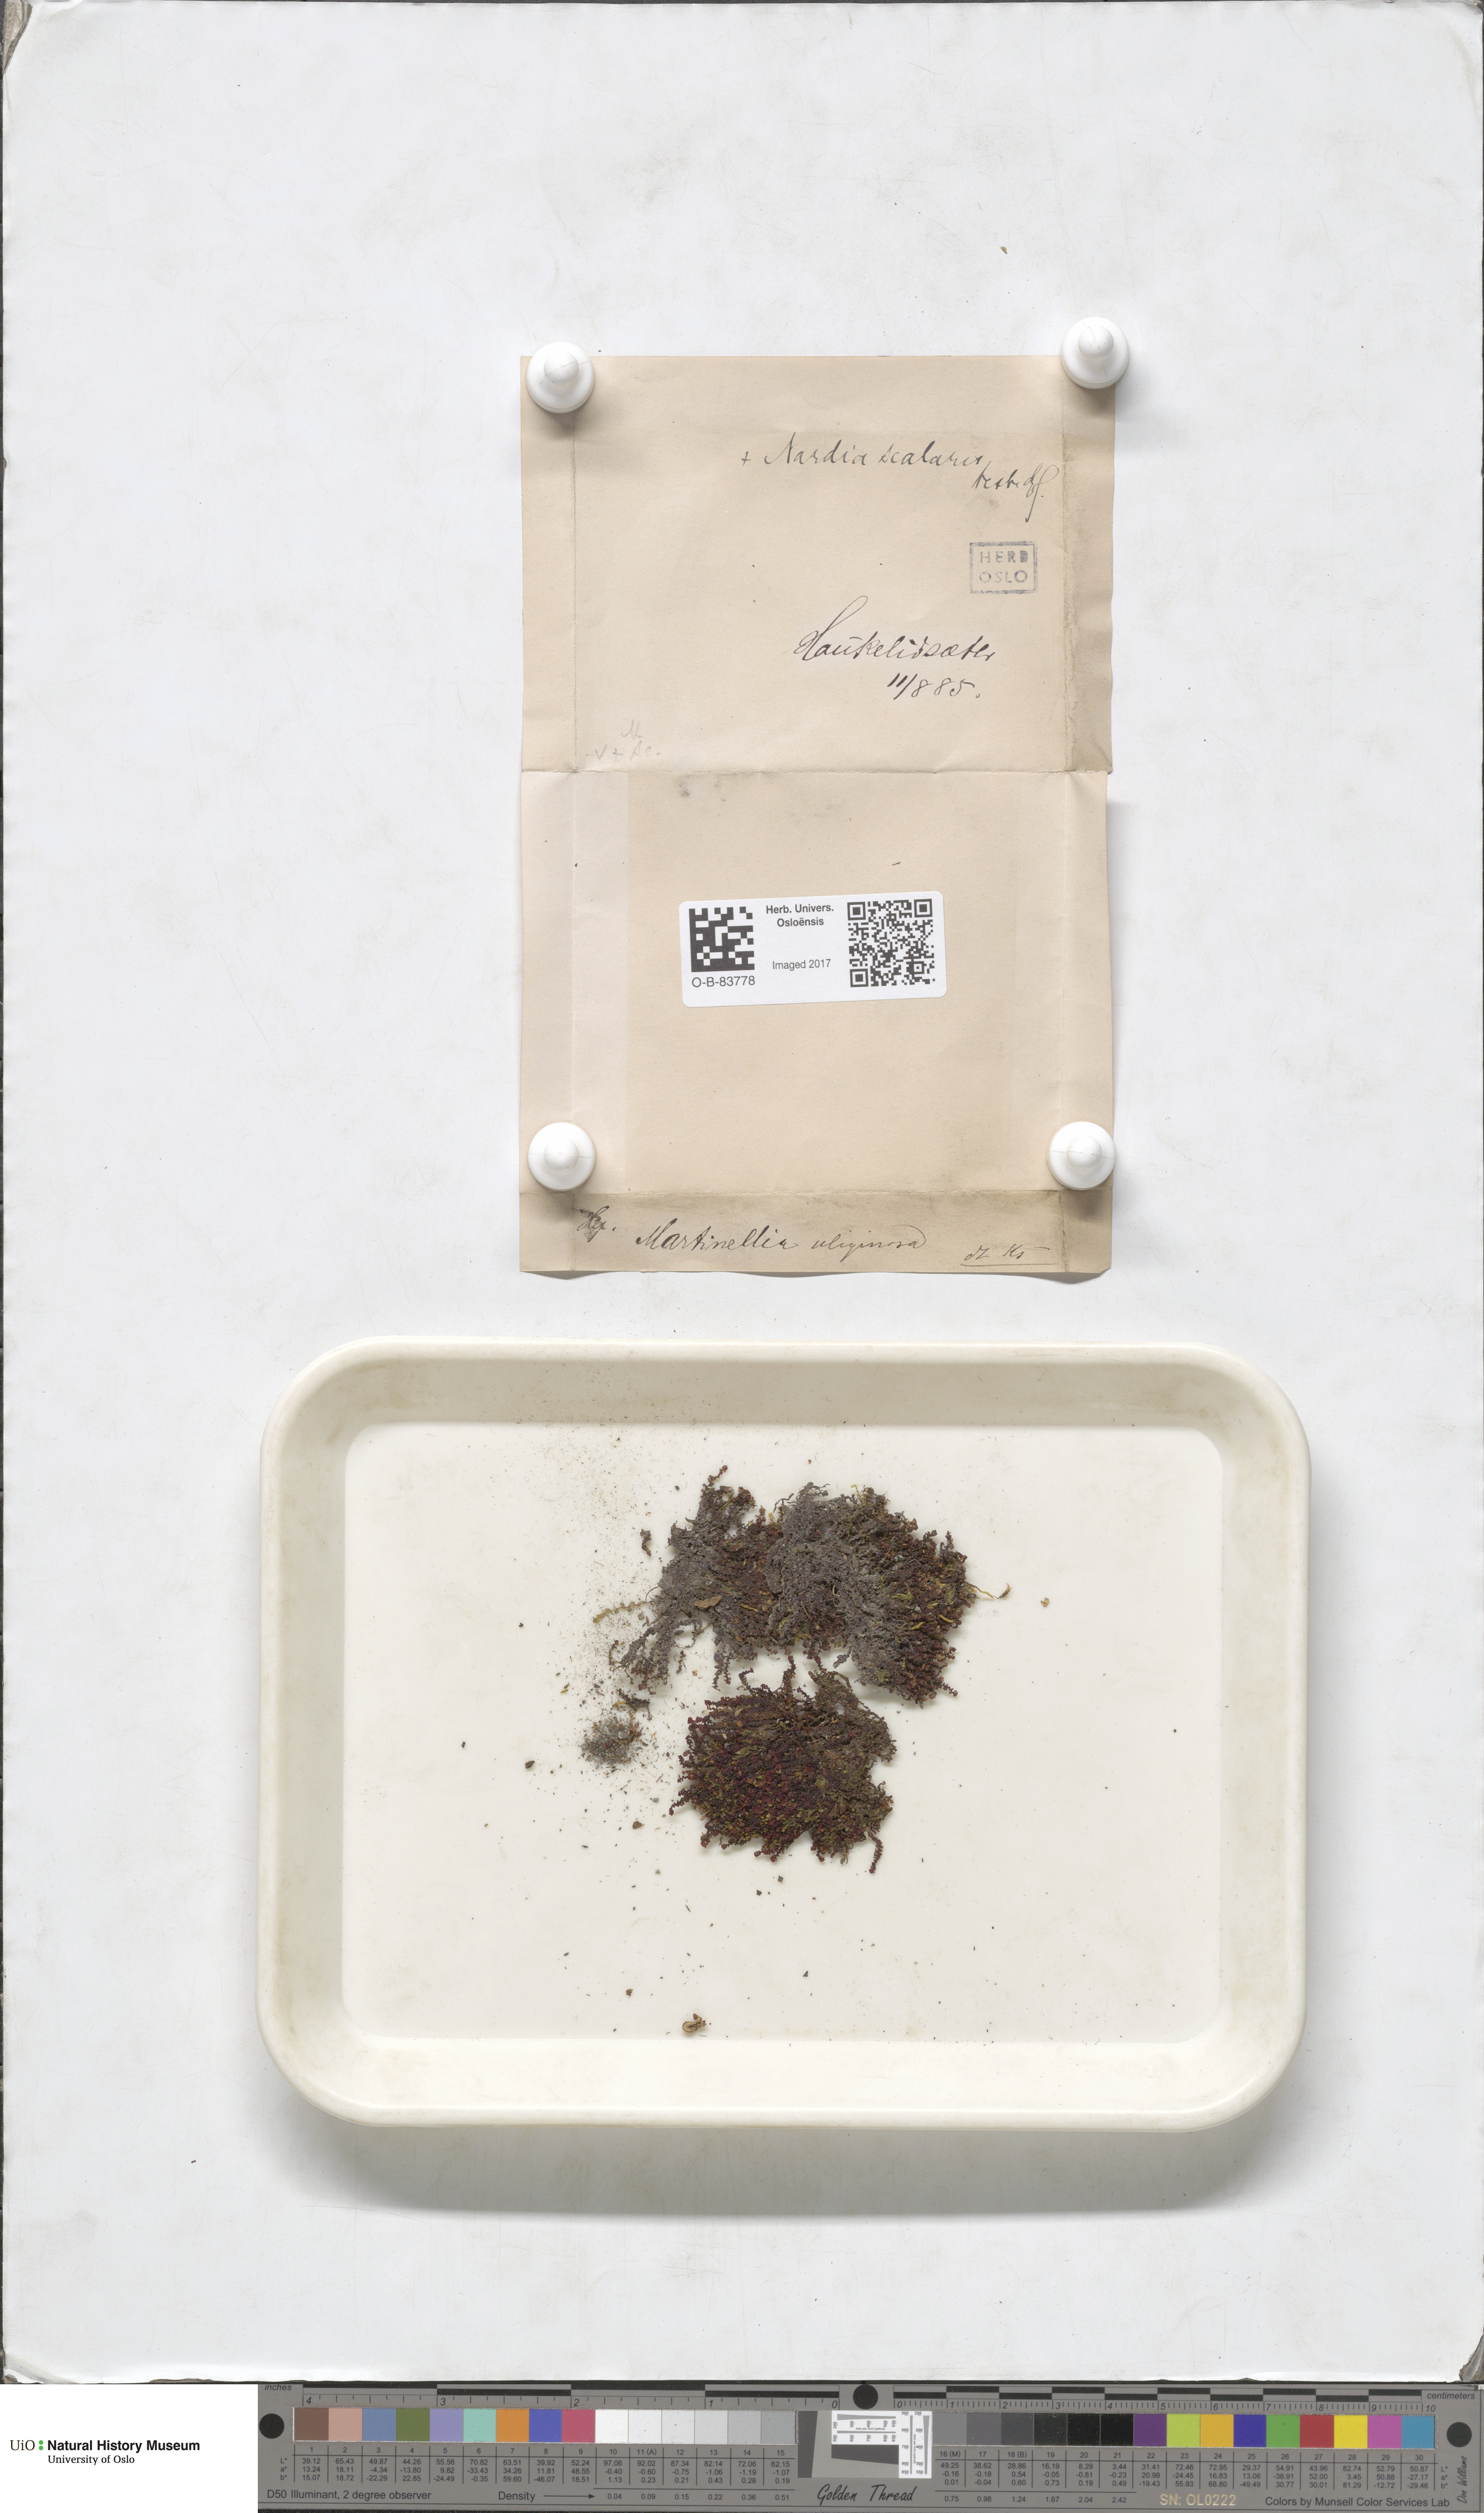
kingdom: Plantae
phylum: Marchantiophyta
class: Jungermanniopsida
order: Jungermanniales
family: Scapaniaceae
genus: Scapania
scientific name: Scapania uliginosa
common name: Marsh earwort
